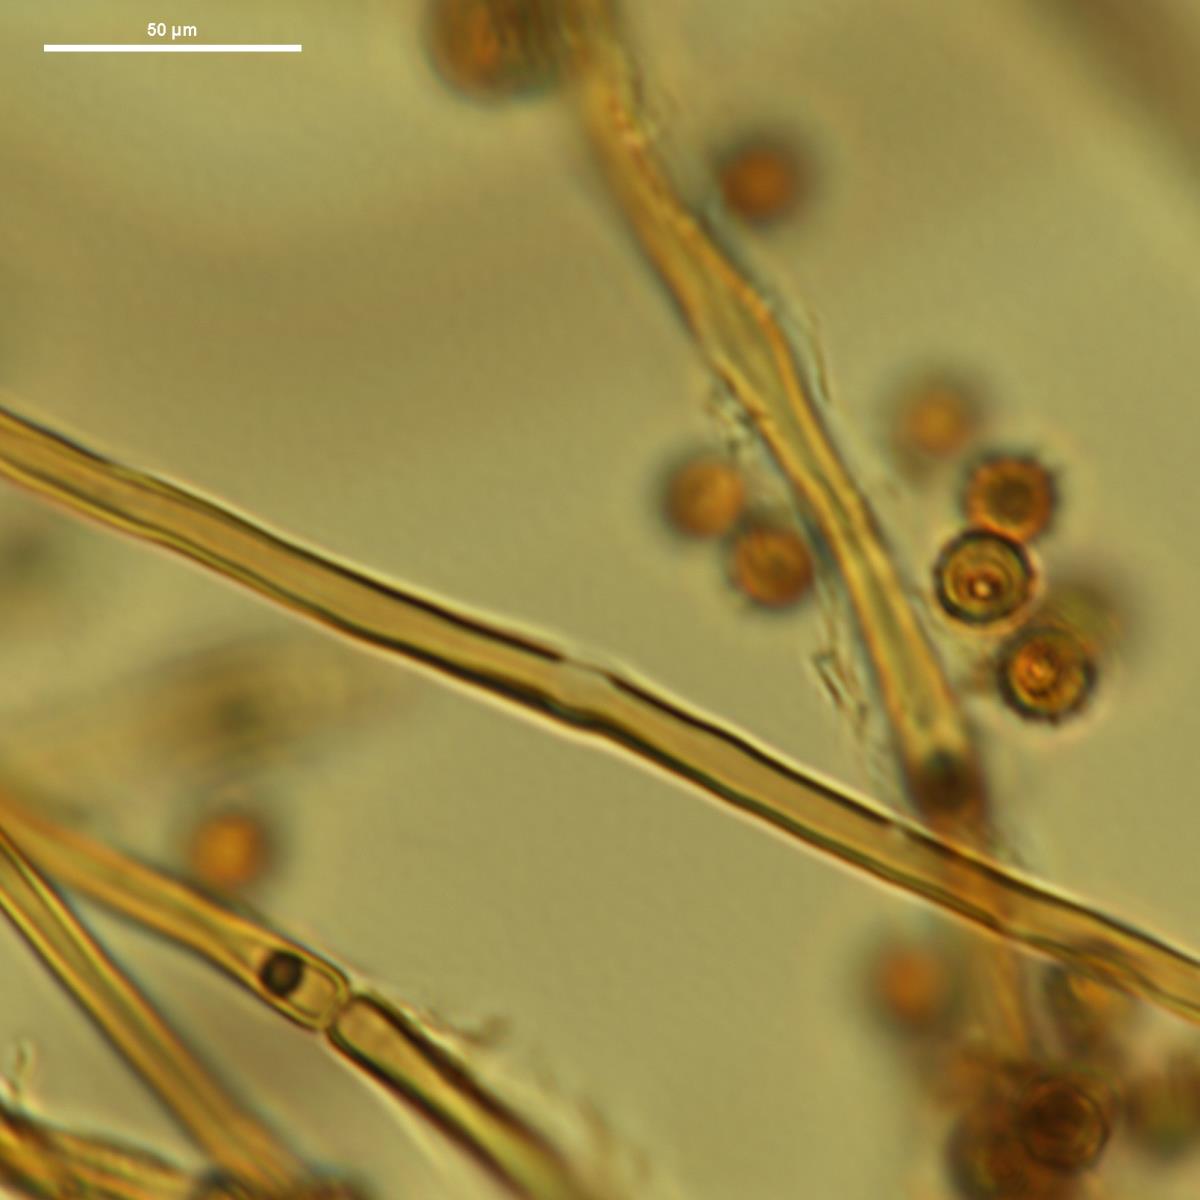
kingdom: Fungi
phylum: Basidiomycota
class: Agaricomycetes
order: Agaricales
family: Lycoperdaceae
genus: Calvatia
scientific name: Calvatia cretacea
